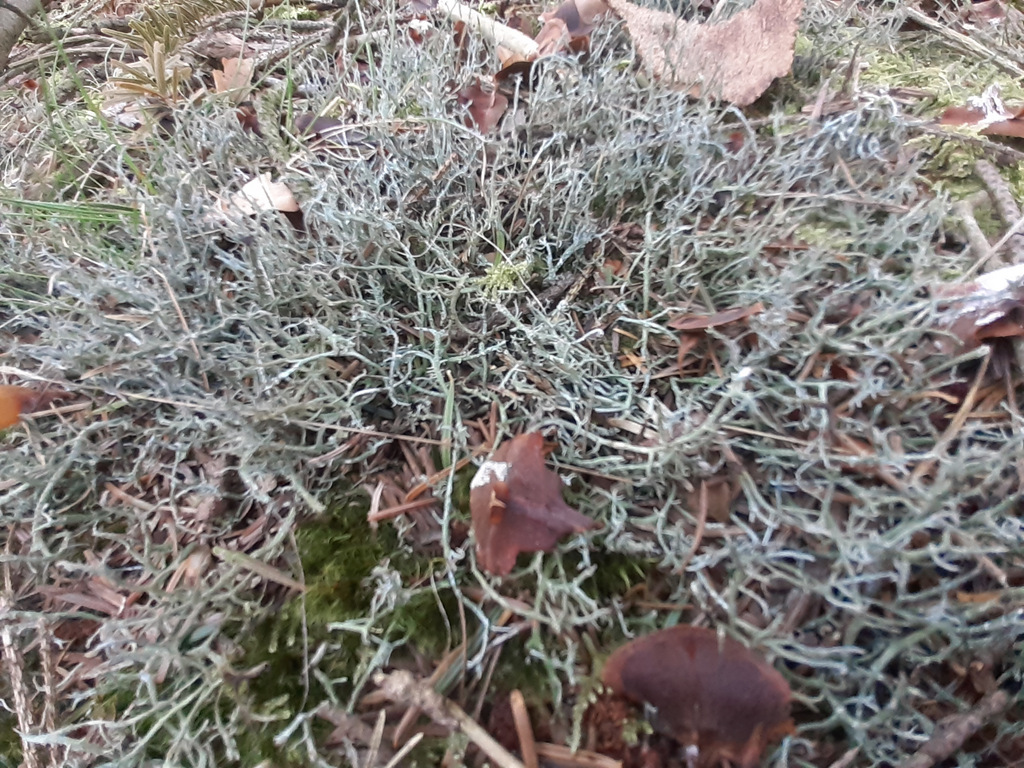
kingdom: Fungi
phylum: Ascomycota
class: Lecanoromycetes
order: Lecanorales
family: Cladoniaceae
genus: Cladonia
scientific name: Cladonia furcata
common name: kløftet bægerlav
